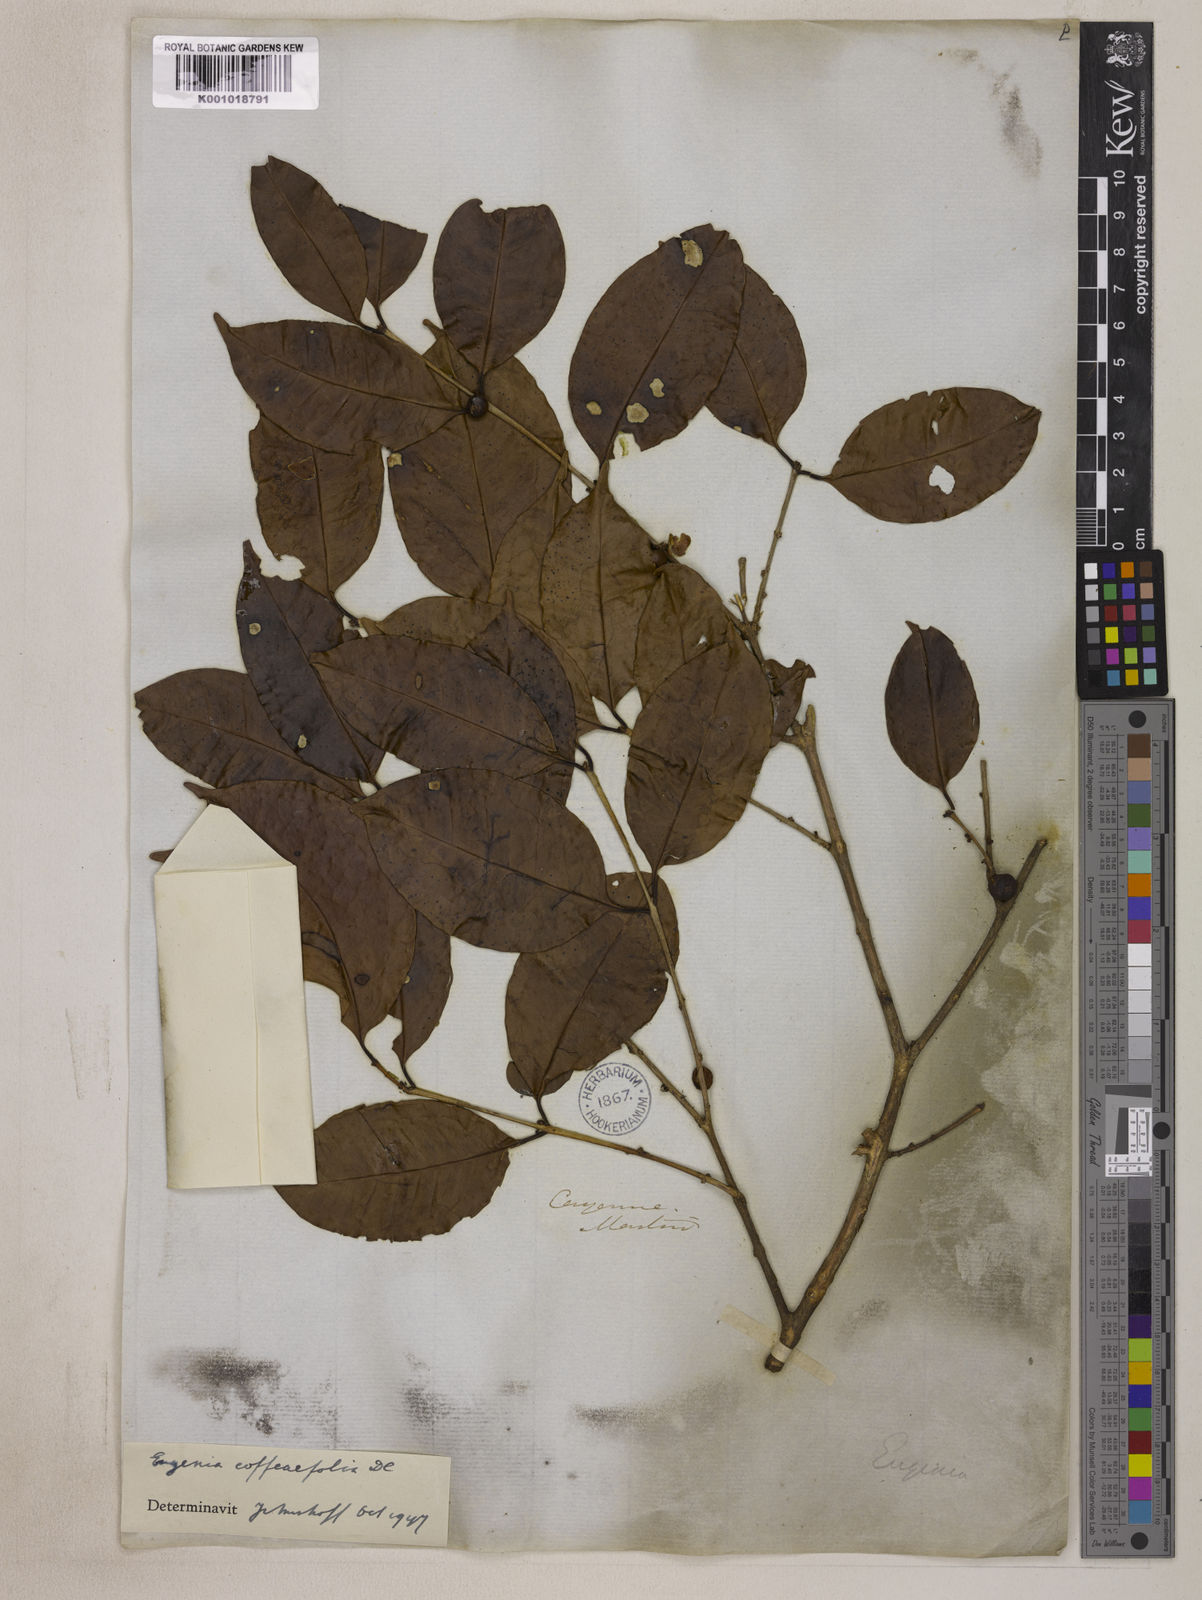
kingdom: Plantae
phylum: Tracheophyta
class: Magnoliopsida
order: Myrtales
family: Myrtaceae
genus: Eugenia
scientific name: Eugenia coffeifolia
